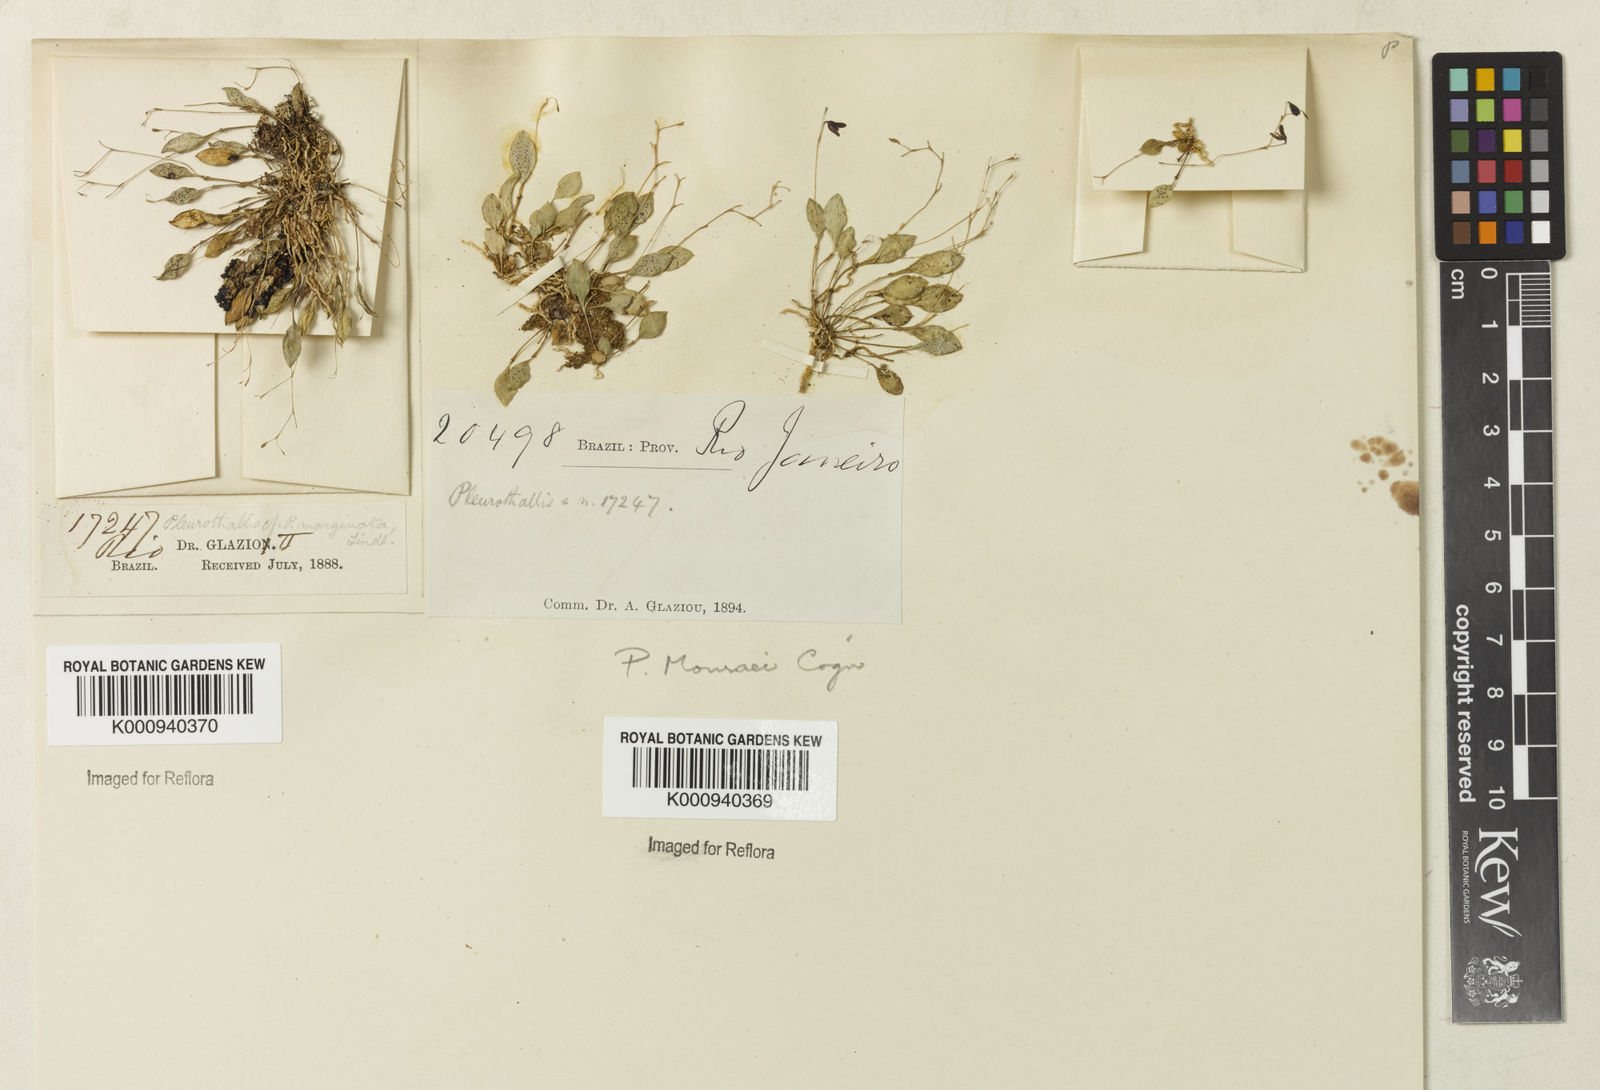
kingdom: Plantae
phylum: Tracheophyta
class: Liliopsida
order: Asparagales
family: Orchidaceae
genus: Pabstiella
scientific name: Pabstiella quadridentata
